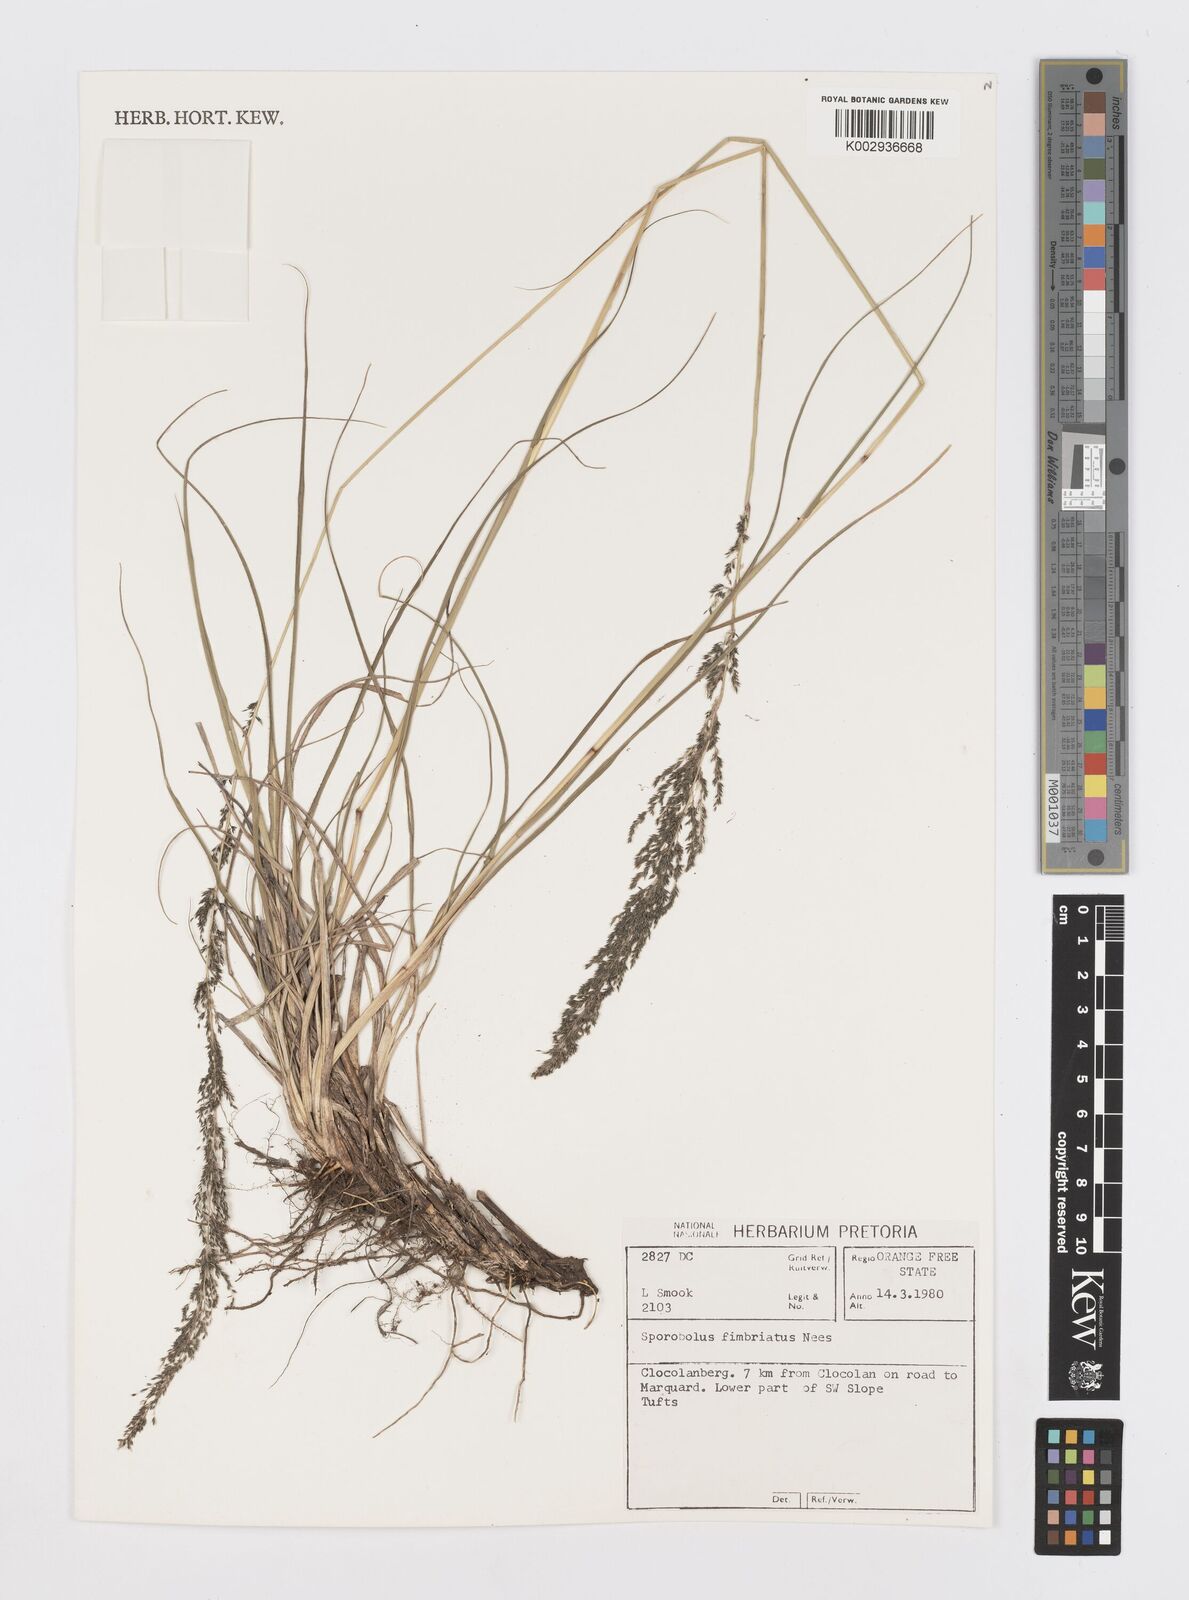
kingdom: Plantae
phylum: Tracheophyta
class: Liliopsida
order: Poales
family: Poaceae
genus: Sporobolus
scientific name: Sporobolus fimbriatus
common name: Fringed dropseed
